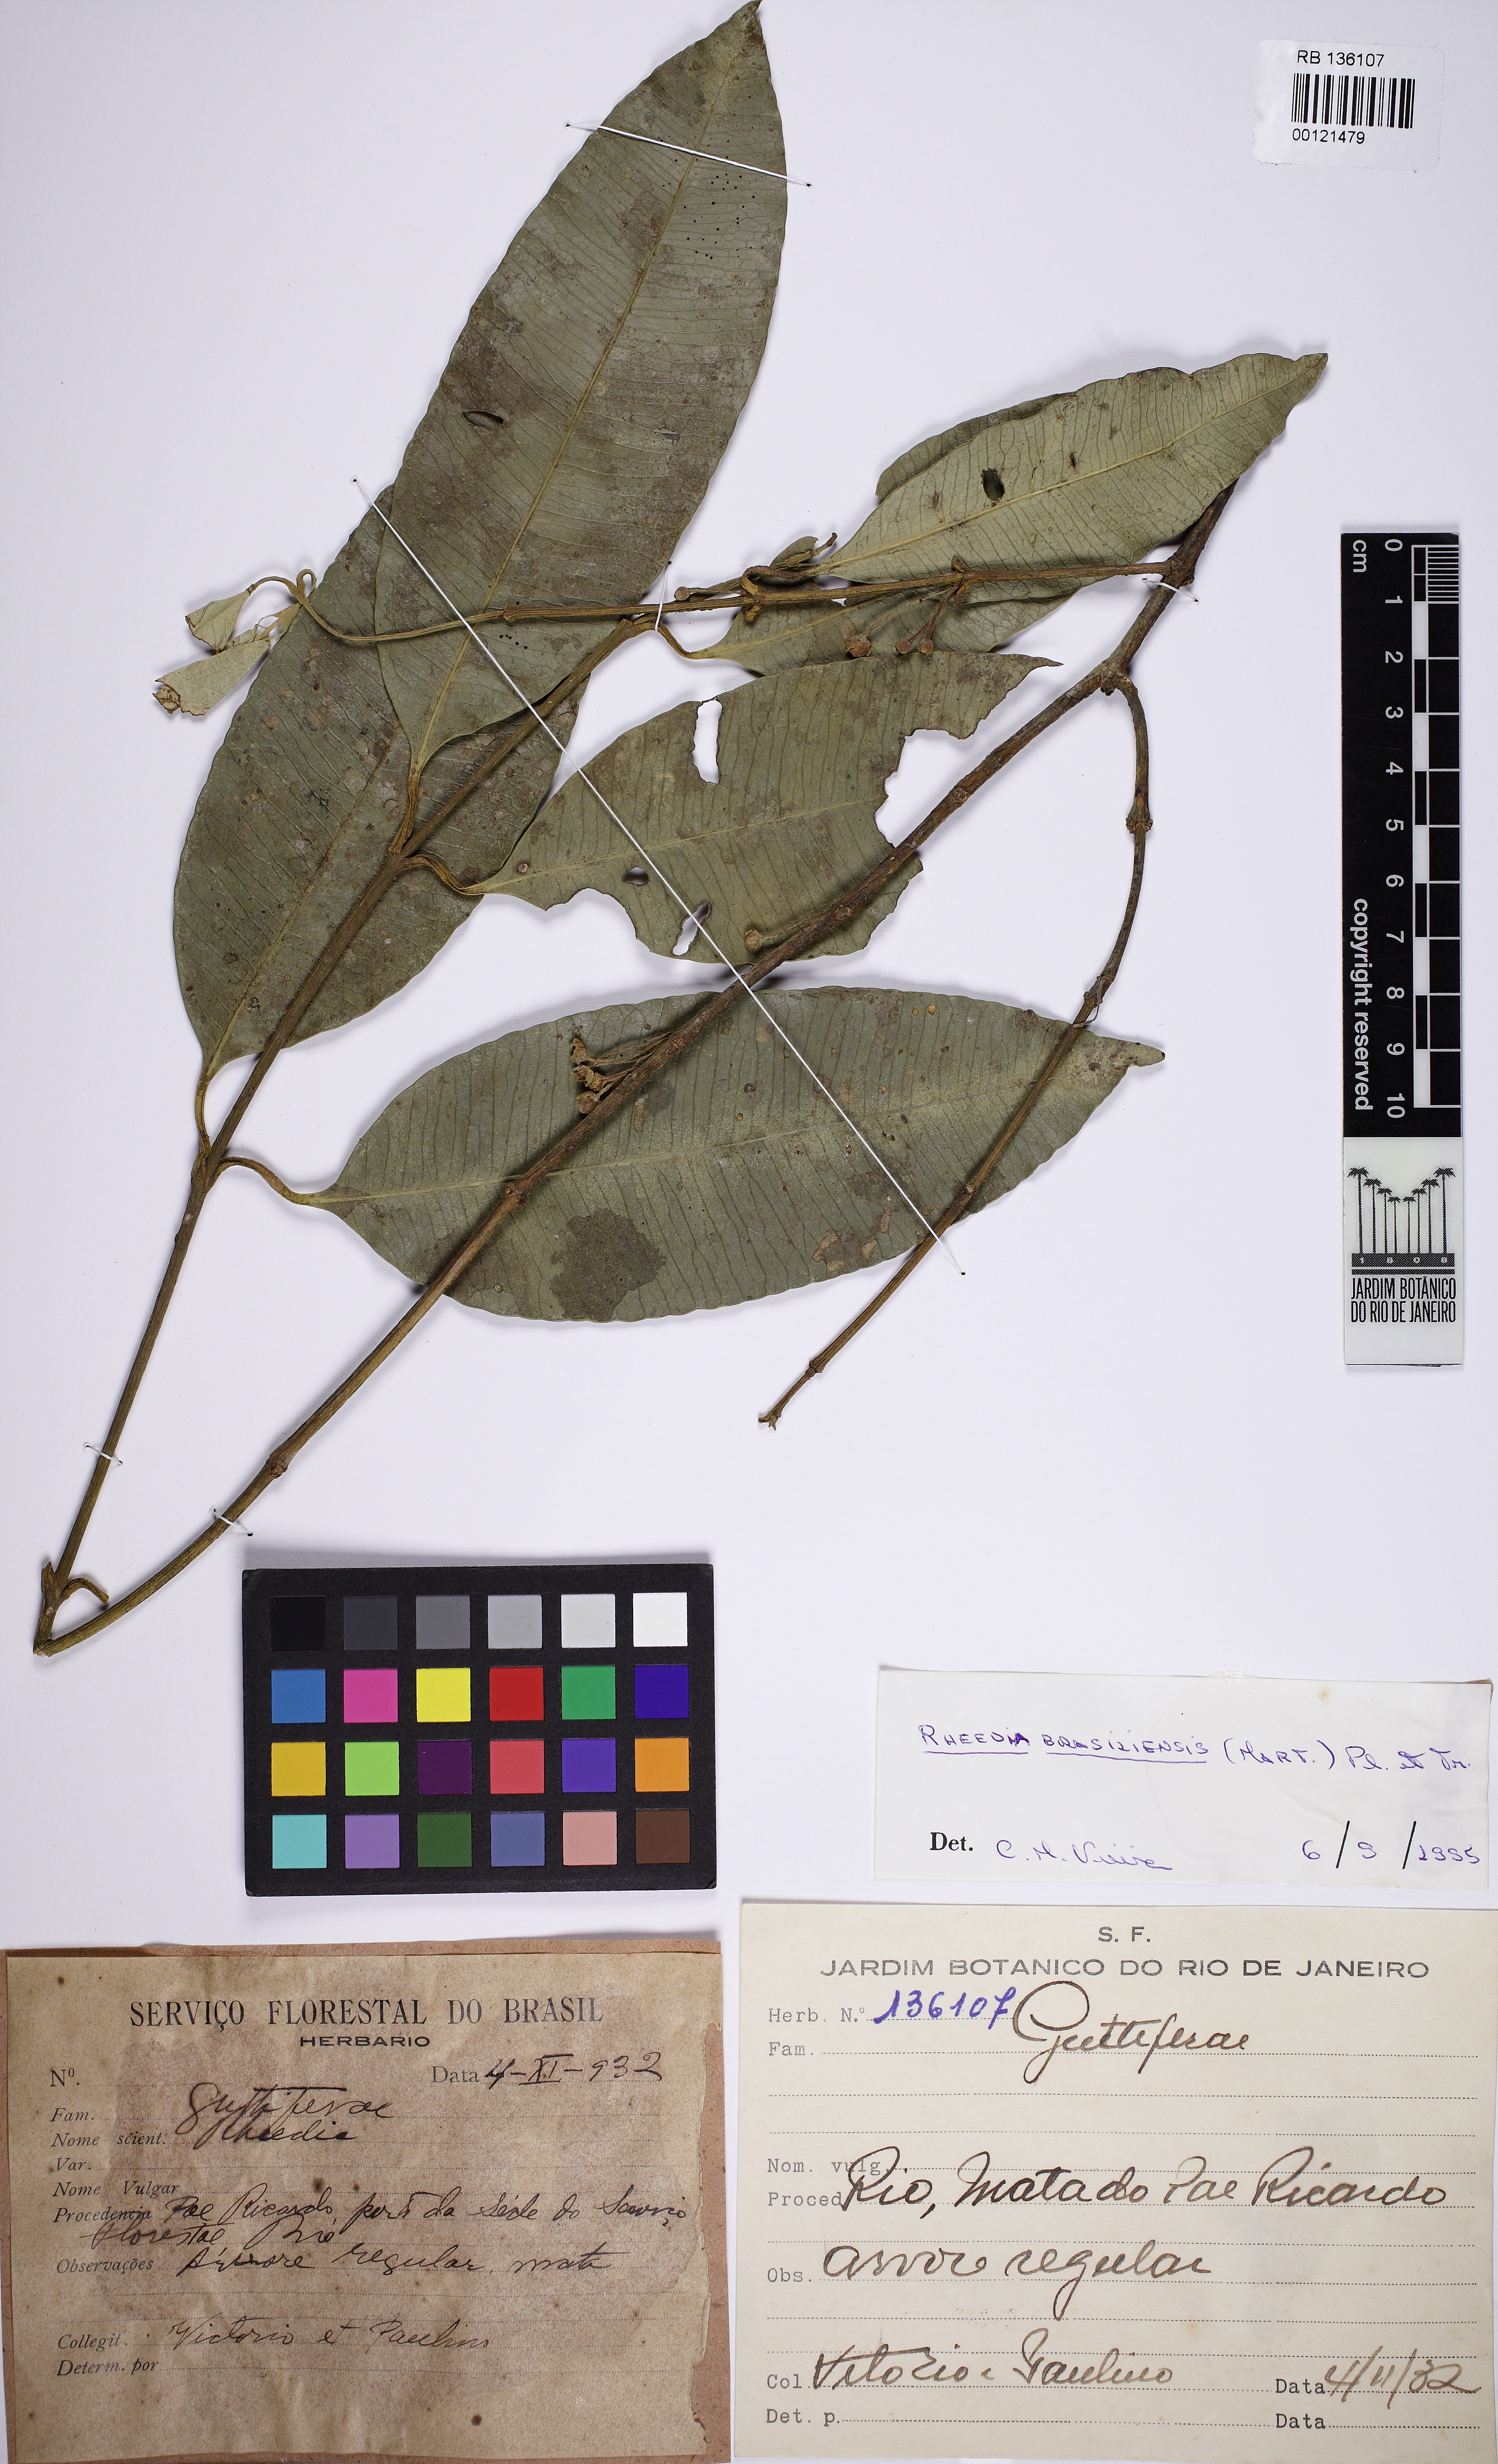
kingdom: Plantae
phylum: Tracheophyta
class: Magnoliopsida
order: Malpighiales
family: Clusiaceae
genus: Garcinia
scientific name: Garcinia gardneriana
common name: Achacha
